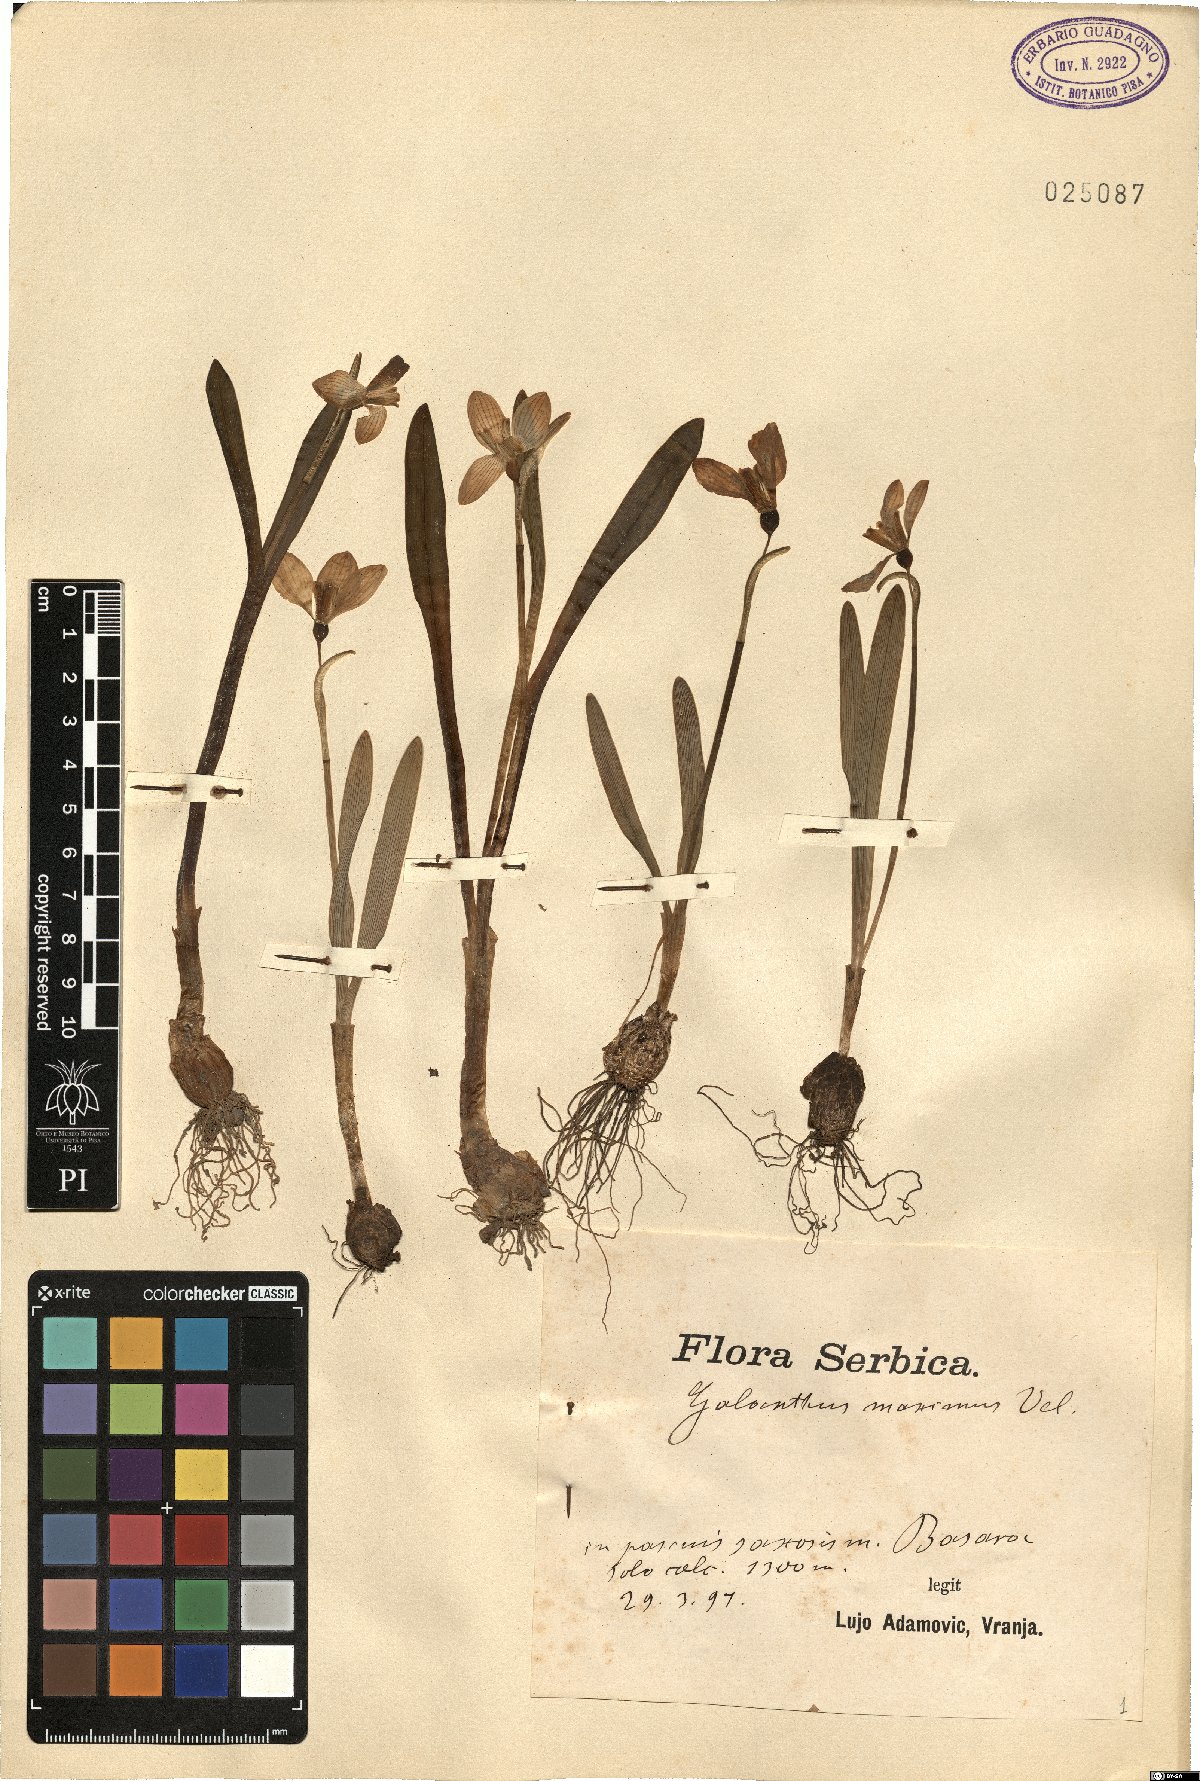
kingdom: Plantae
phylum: Tracheophyta
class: Liliopsida
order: Asparagales
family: Amaryllidaceae
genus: Galanthus
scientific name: Galanthus elwesii
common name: Greater snowdrop
